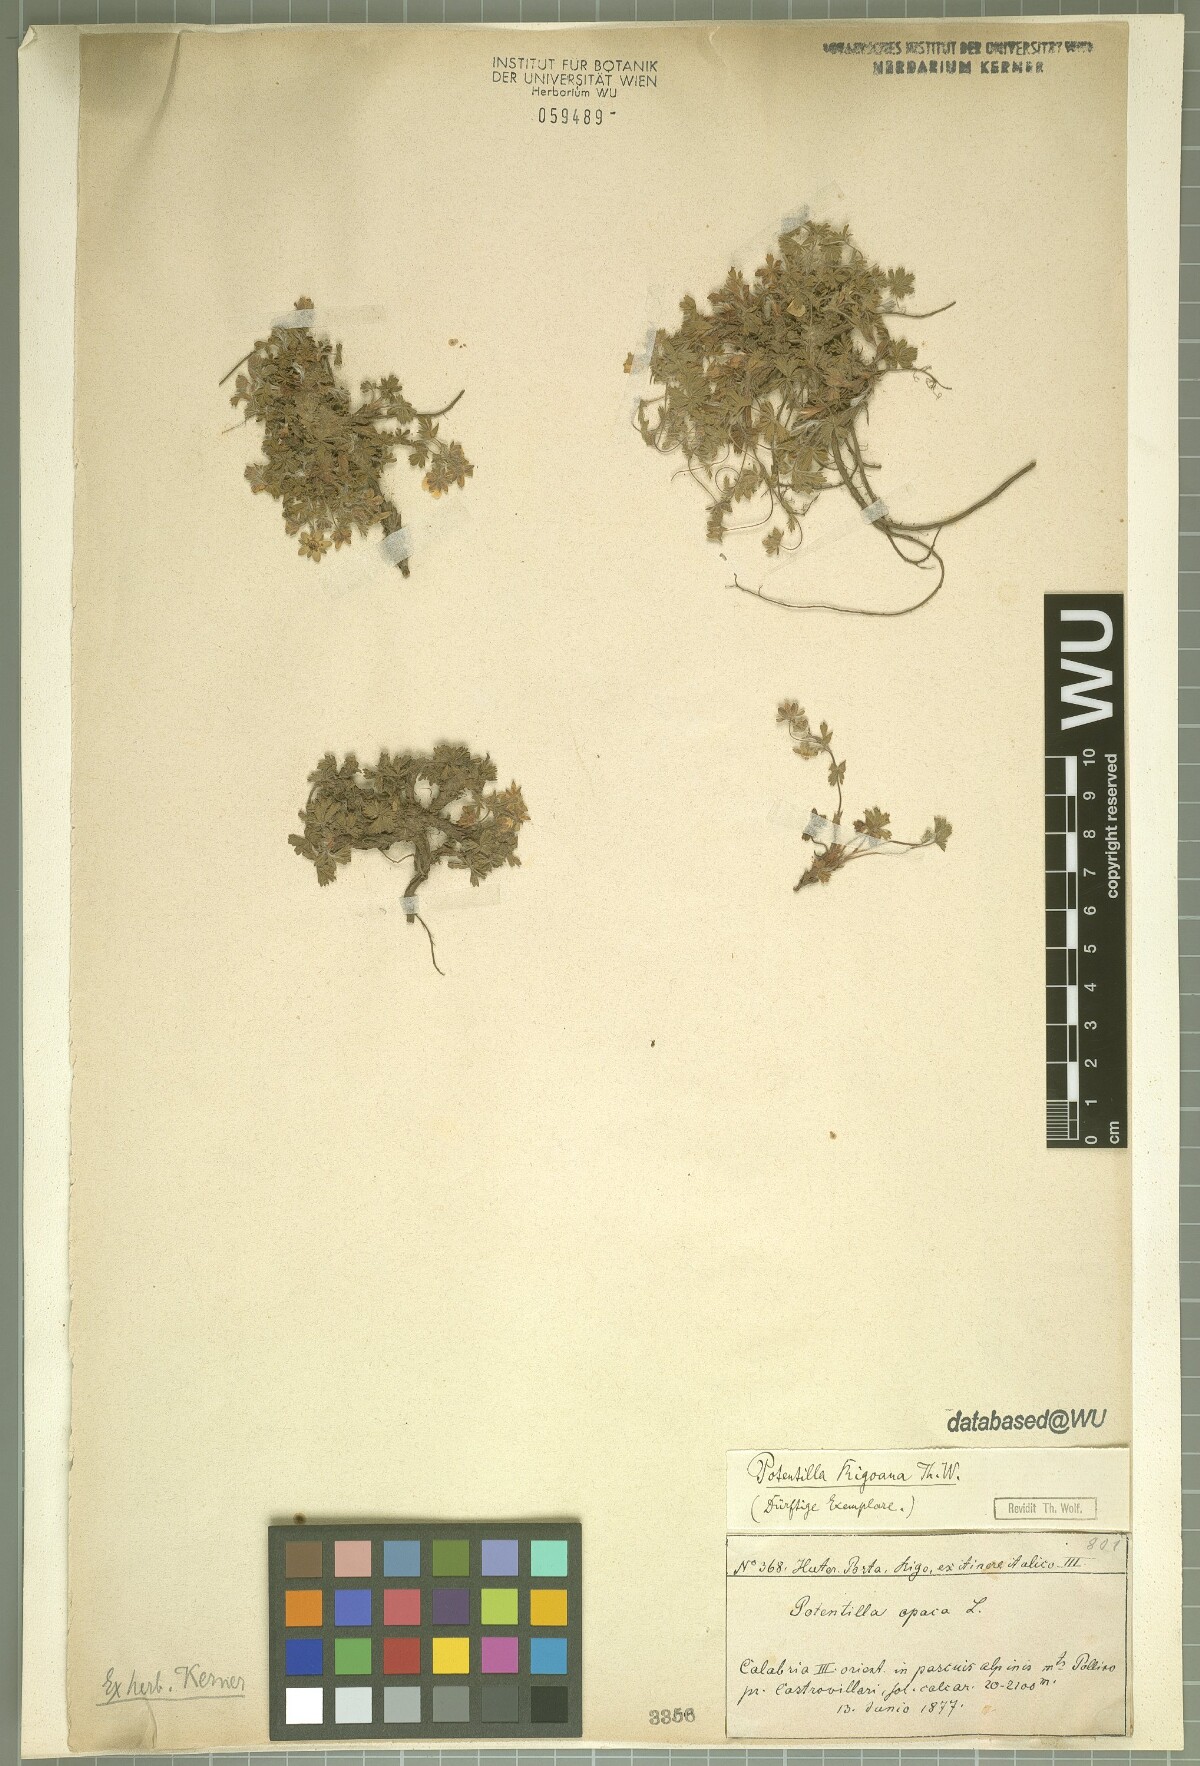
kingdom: Plantae
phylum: Tracheophyta
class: Magnoliopsida
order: Rosales
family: Rosaceae
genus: Potentilla
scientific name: Potentilla rigoana
